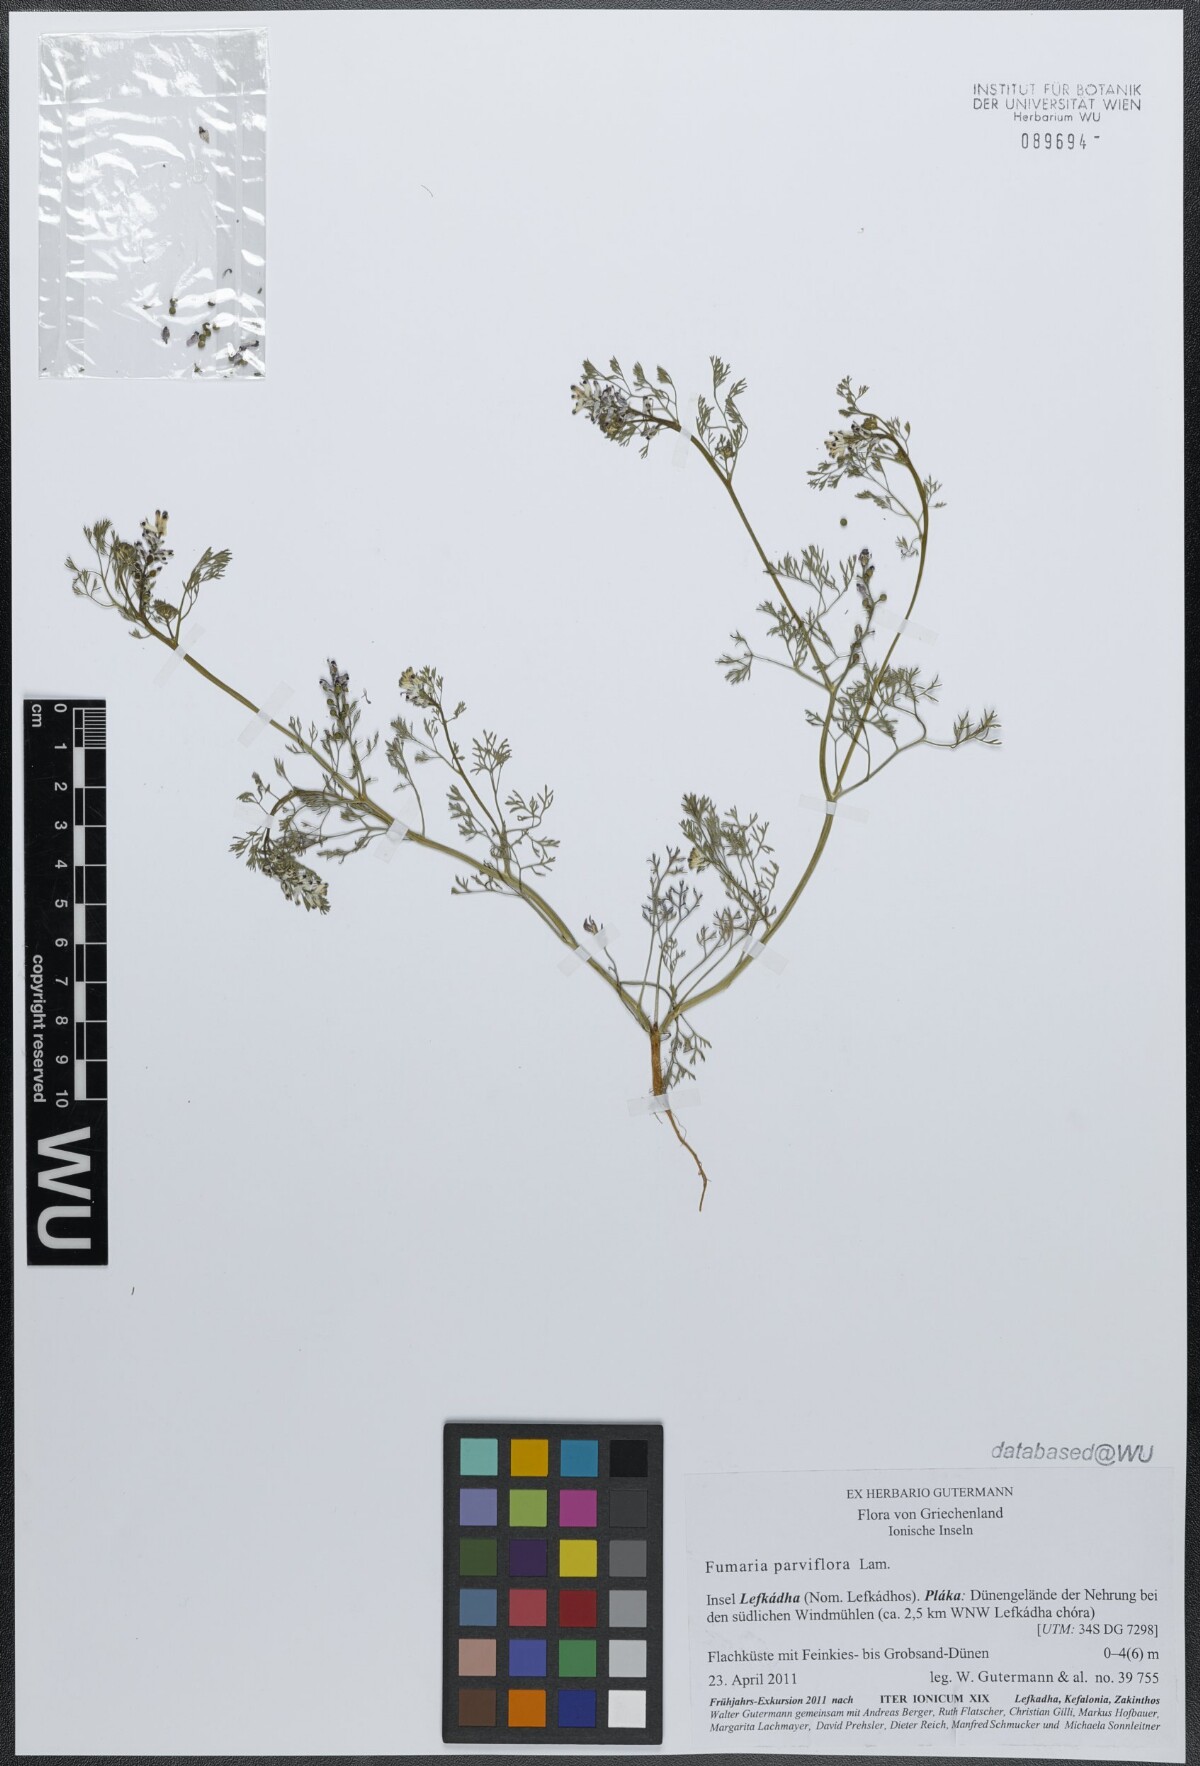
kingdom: Plantae
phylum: Tracheophyta
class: Magnoliopsida
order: Ranunculales
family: Papaveraceae
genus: Fumaria
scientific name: Fumaria parviflora
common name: Fine-leaved fumitory
